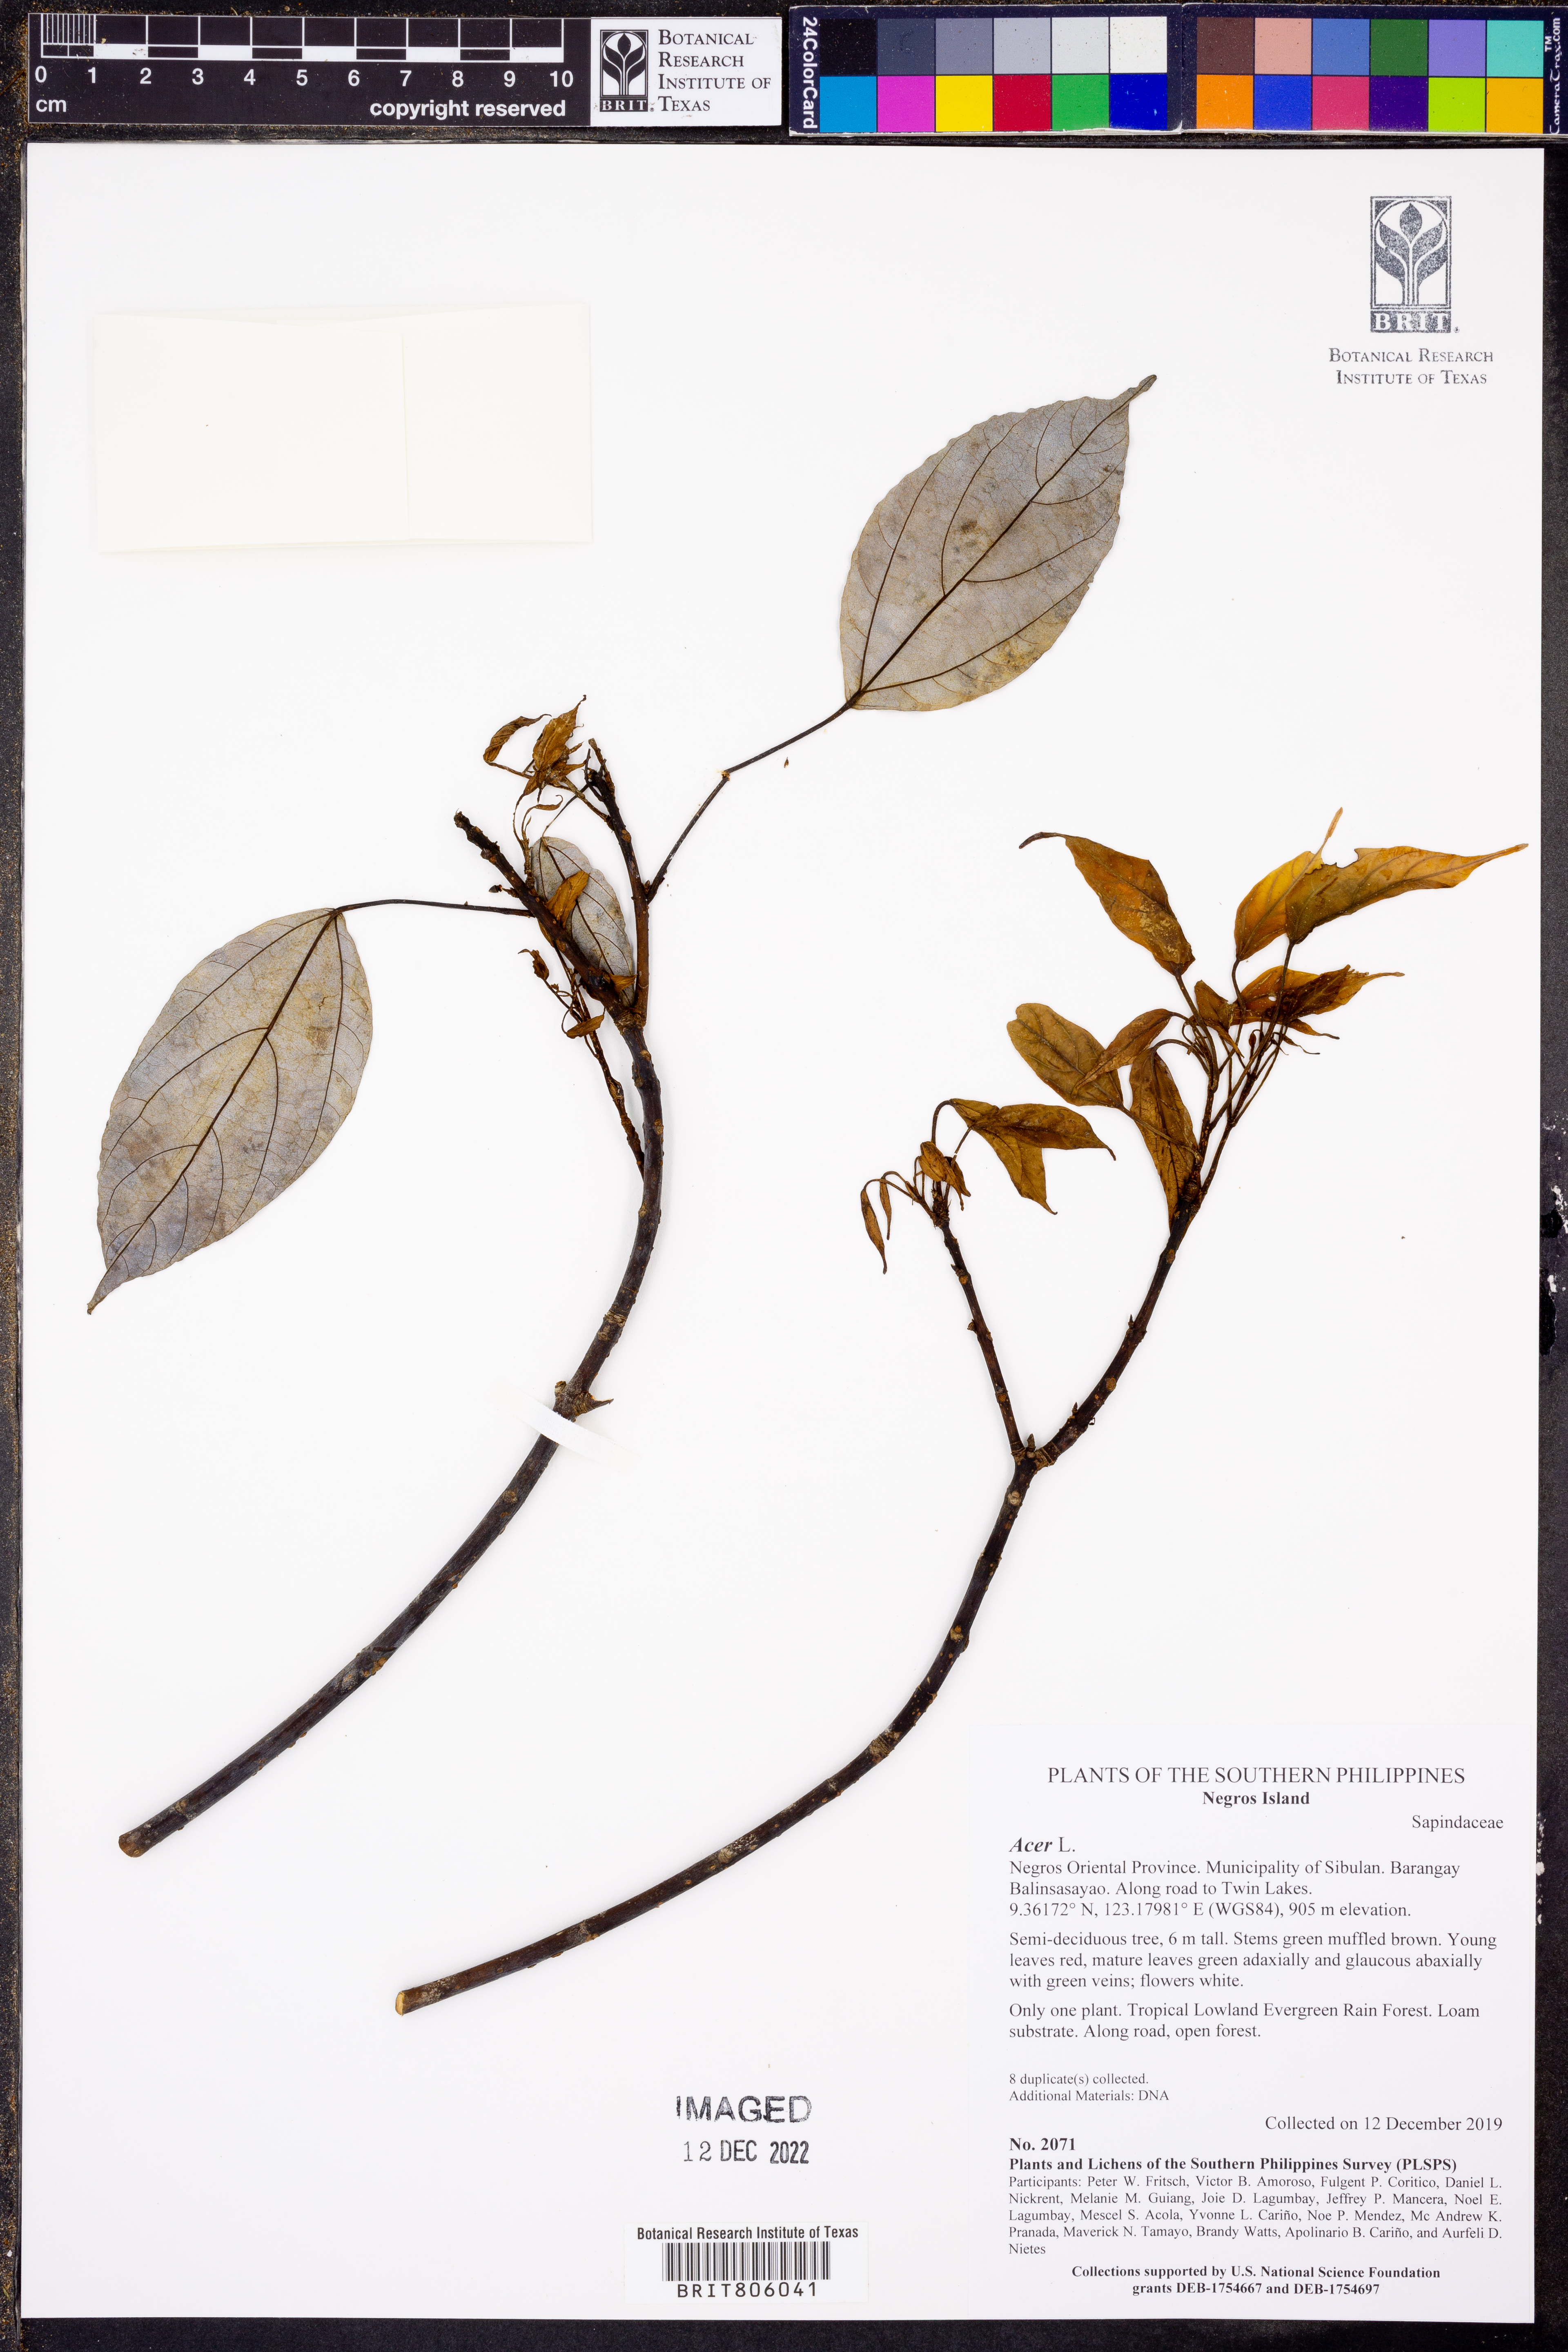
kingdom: Plantae
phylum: Tracheophyta
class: Magnoliopsida
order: Sapindales
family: Sapindaceae
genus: Acer
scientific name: Acer
